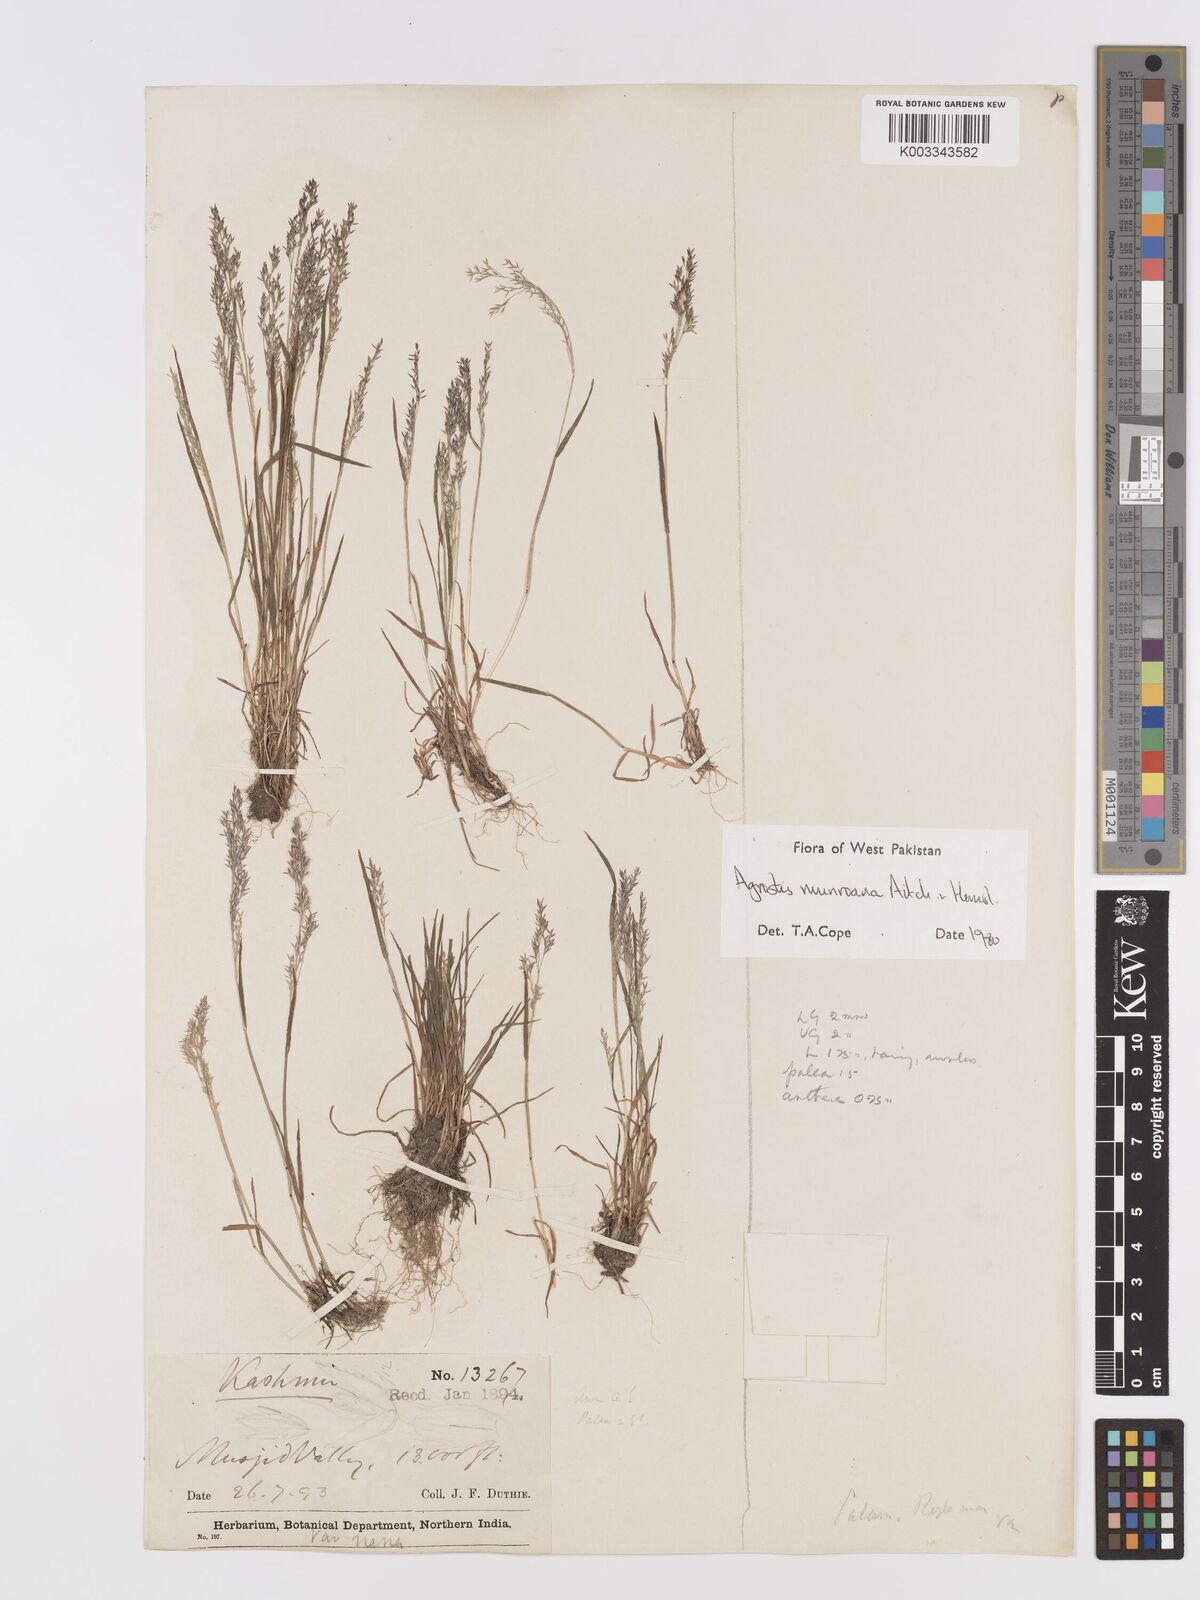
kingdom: Plantae
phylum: Tracheophyta
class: Liliopsida
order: Poales
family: Poaceae
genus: Agrostis
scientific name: Agrostis munroana
